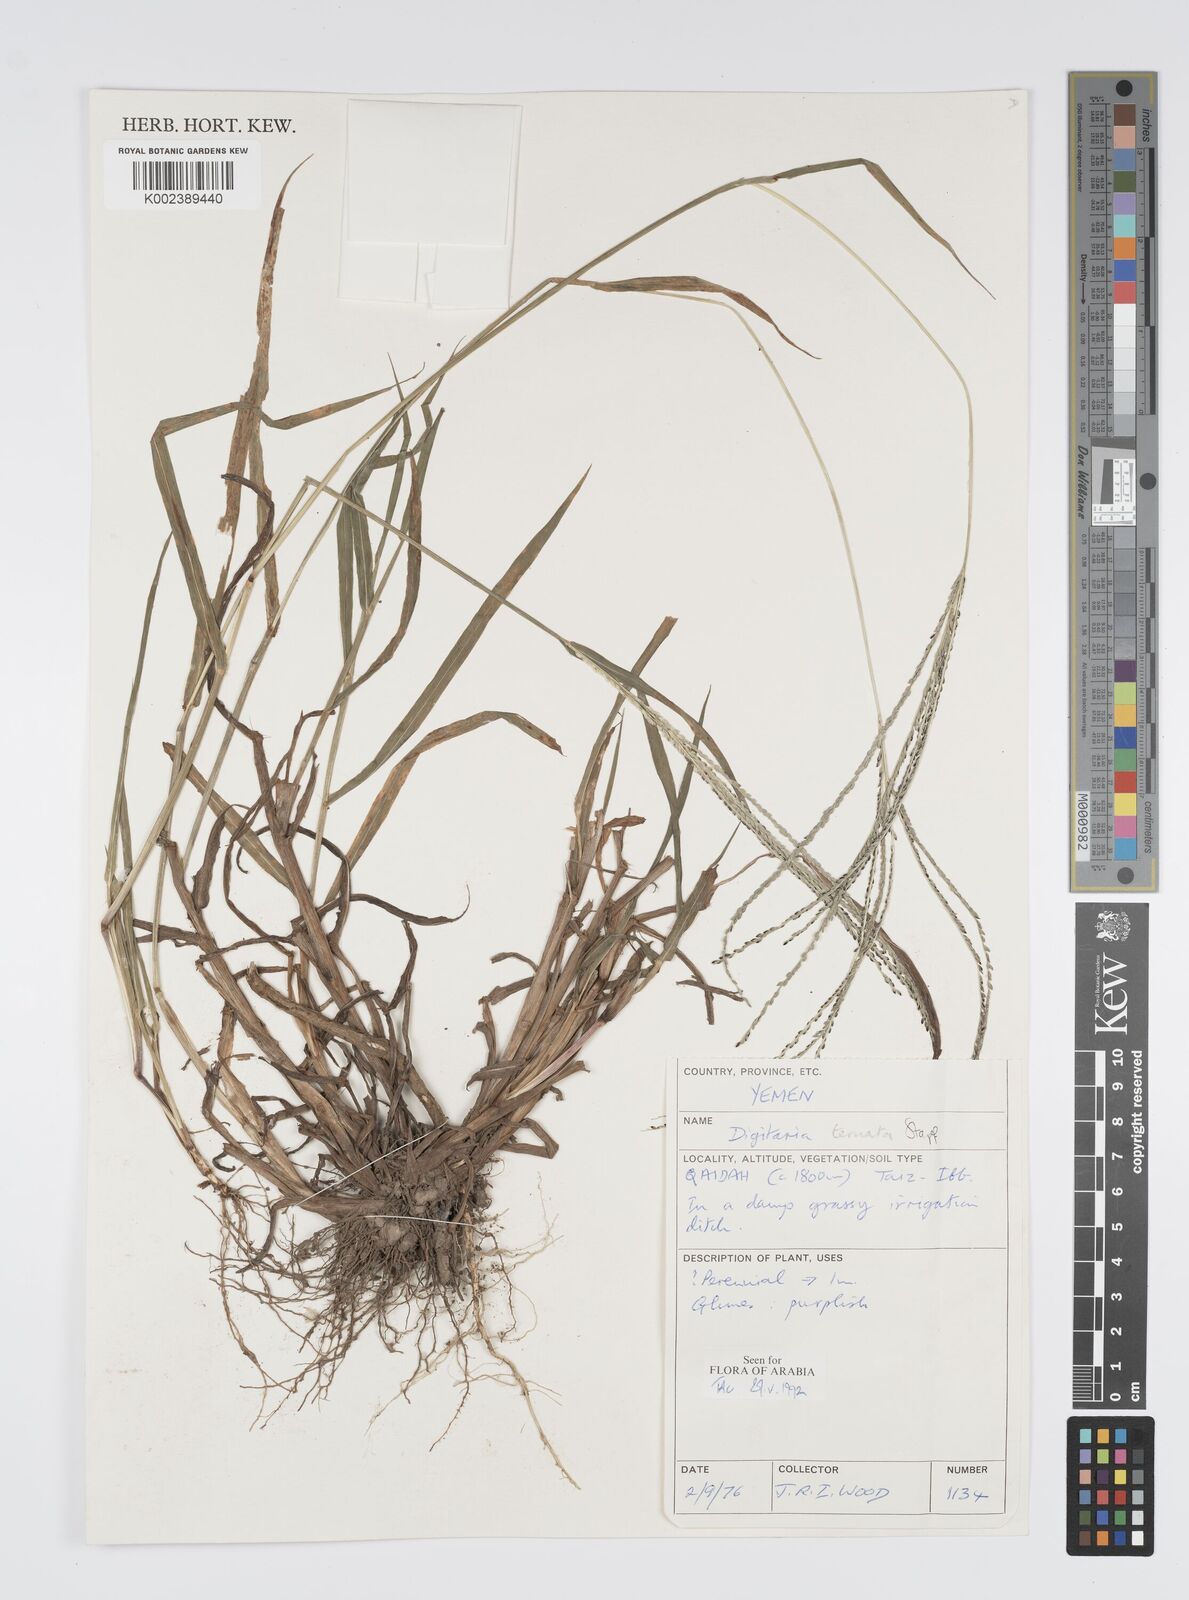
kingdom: Plantae
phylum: Tracheophyta
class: Liliopsida
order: Poales
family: Poaceae
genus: Digitaria
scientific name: Digitaria ternata
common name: Blackseed crabgrass
